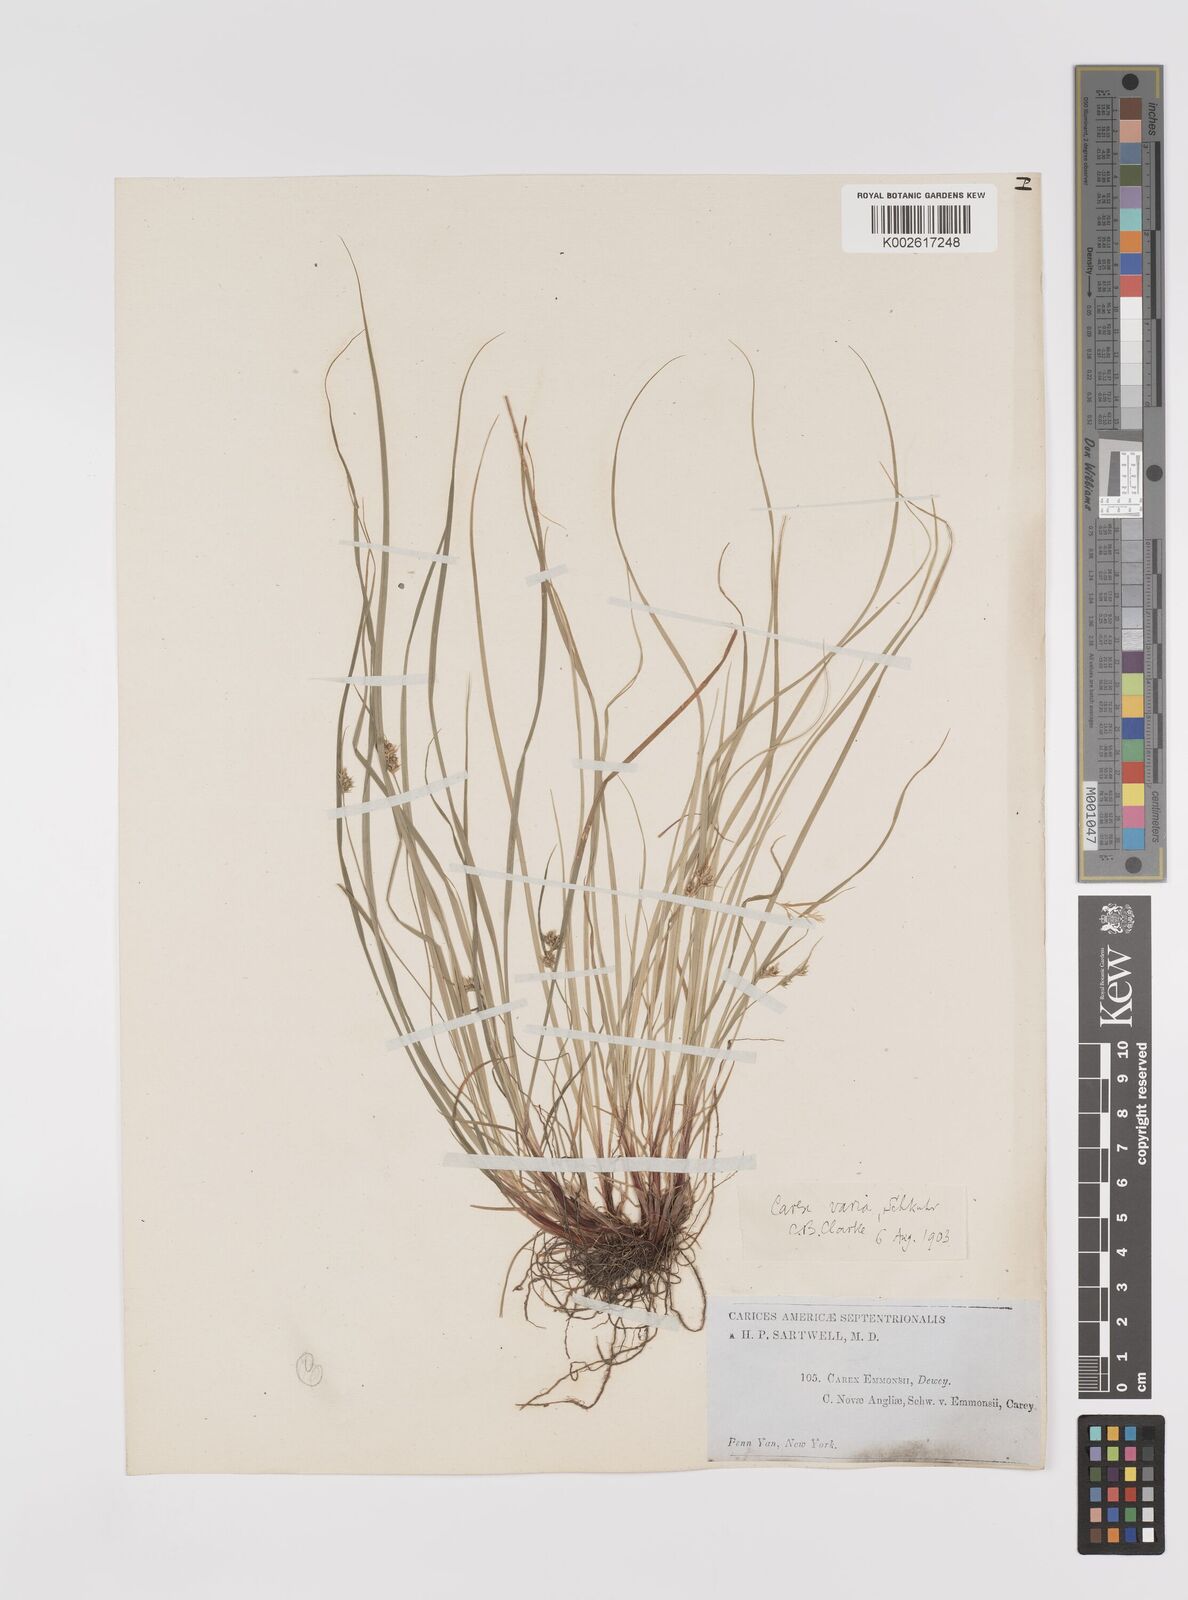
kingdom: Plantae
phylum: Tracheophyta
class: Liliopsida
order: Poales
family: Cyperaceae
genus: Carex
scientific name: Carex albicans
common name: Bellow-beaked sedge
